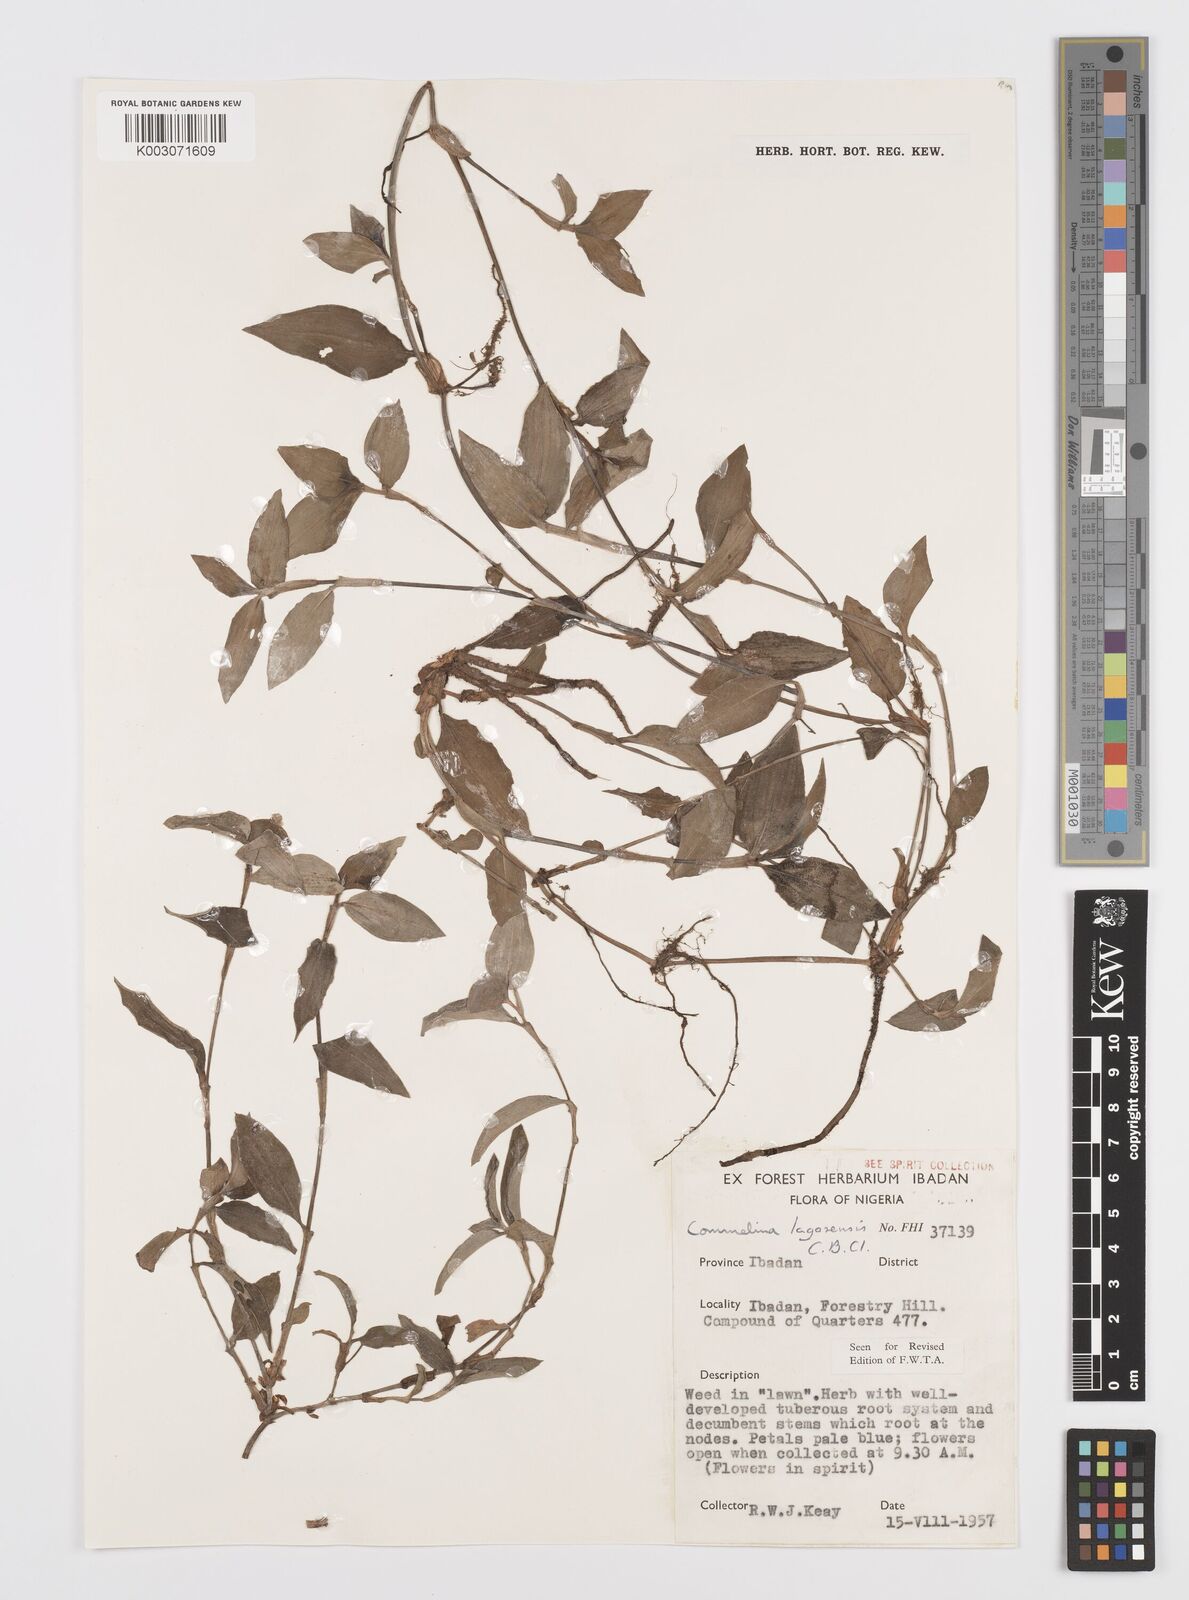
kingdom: Plantae
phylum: Tracheophyta
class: Liliopsida
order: Commelinales
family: Commelinaceae
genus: Commelina
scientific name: Commelina bracteosa
